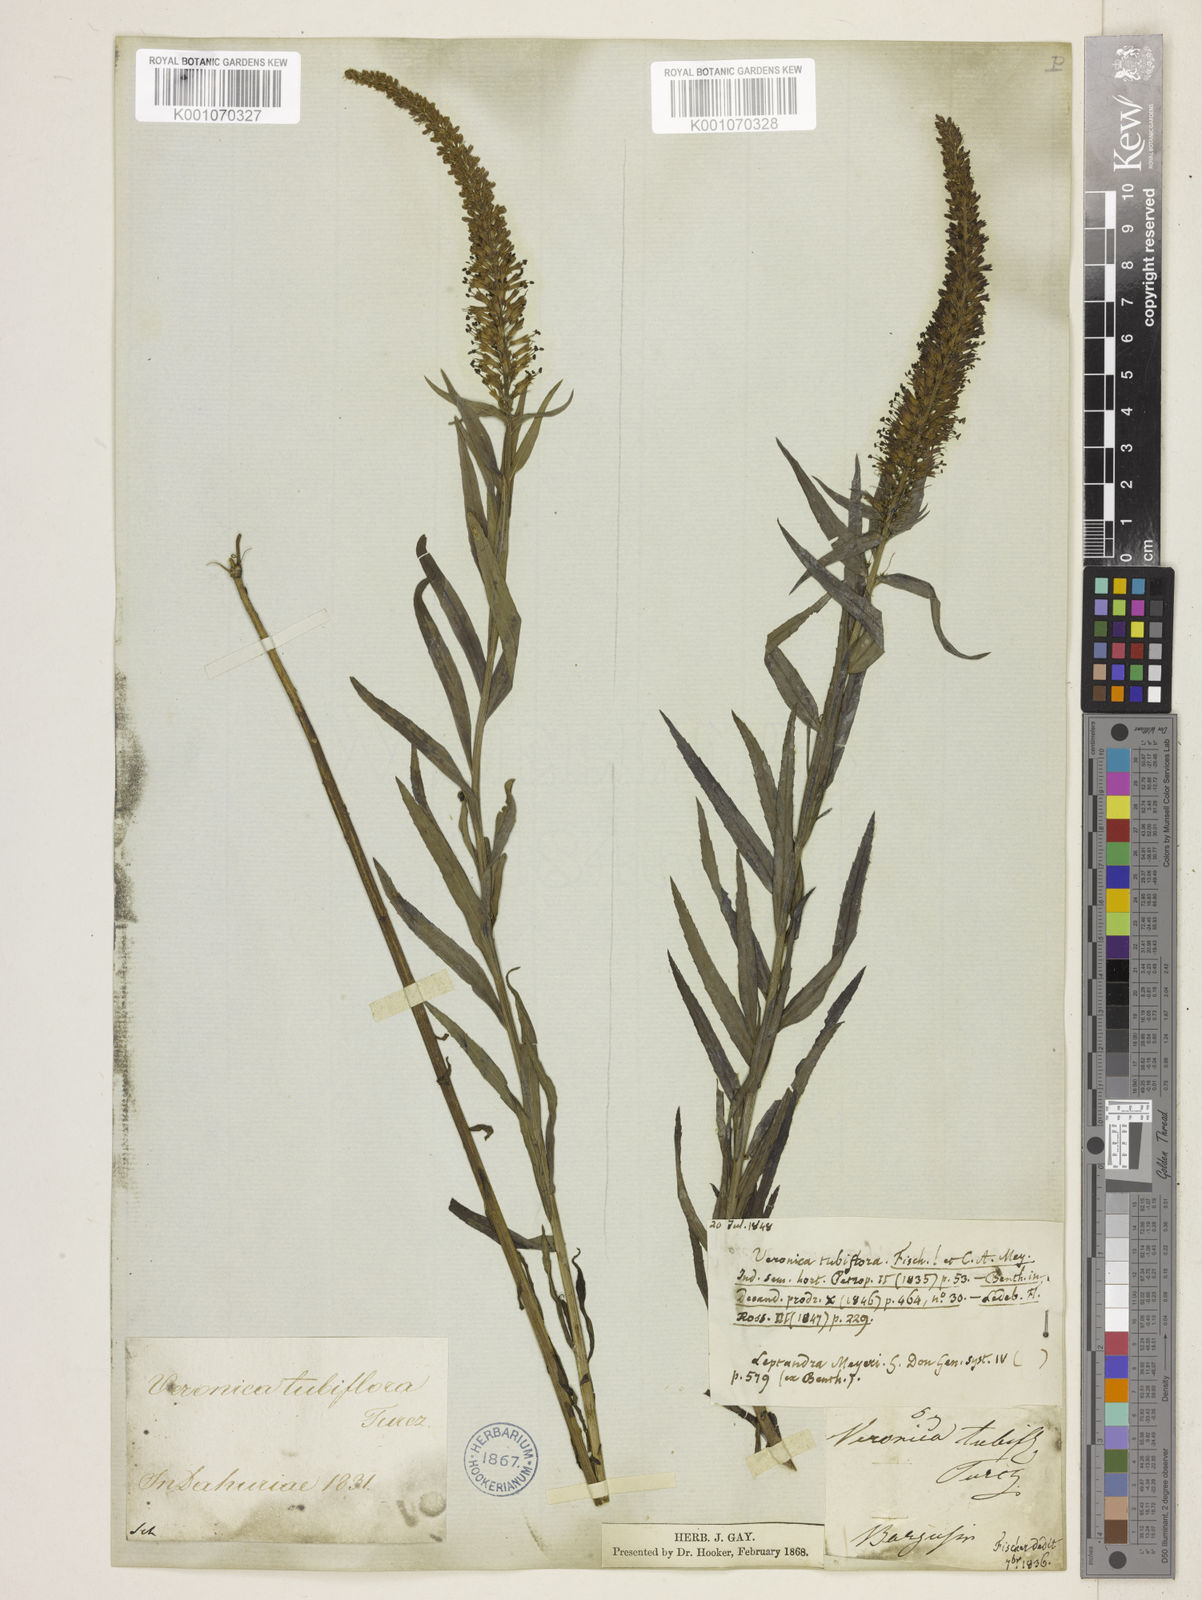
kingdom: Plantae
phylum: Tracheophyta
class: Magnoliopsida
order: Lamiales
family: Plantaginaceae
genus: Veronicastrum
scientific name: Veronicastrum tubiflorum
